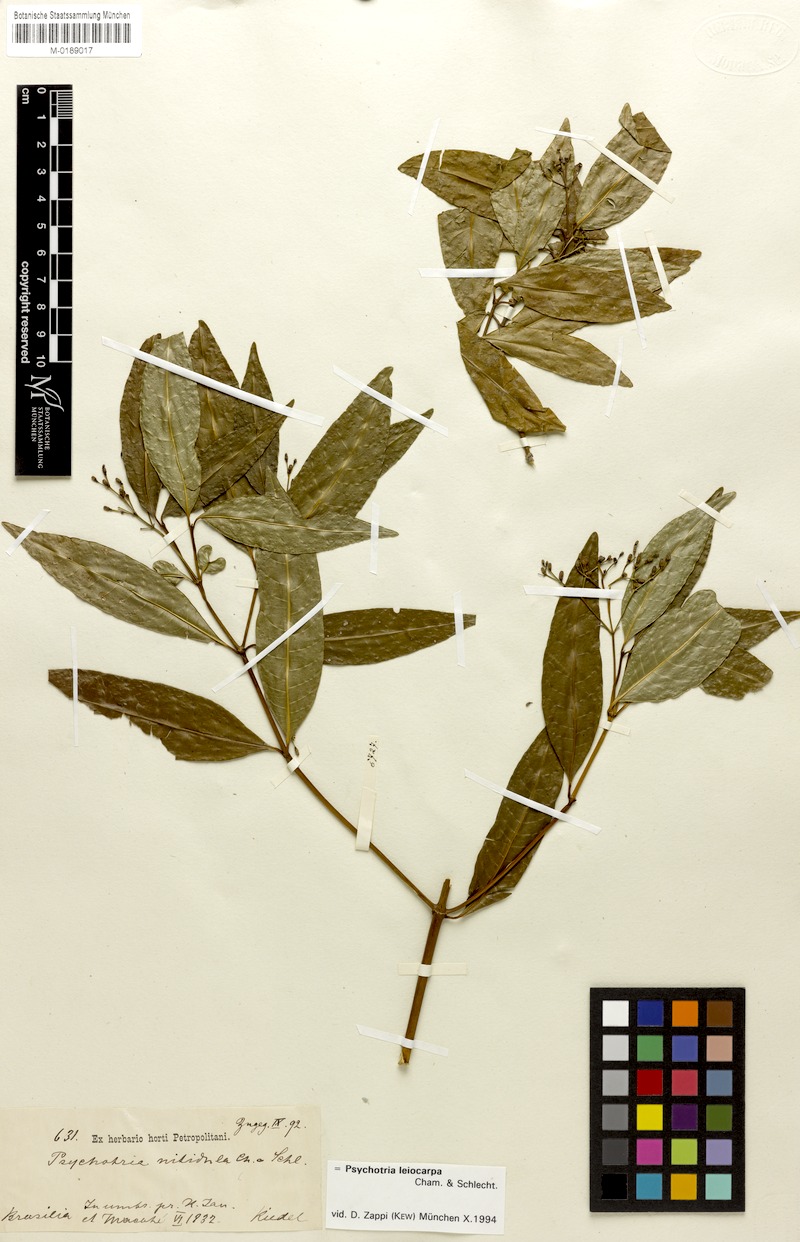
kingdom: Plantae
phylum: Tracheophyta
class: Magnoliopsida
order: Gentianales
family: Rubiaceae
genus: Psychotria
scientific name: Psychotria leiocarpa
